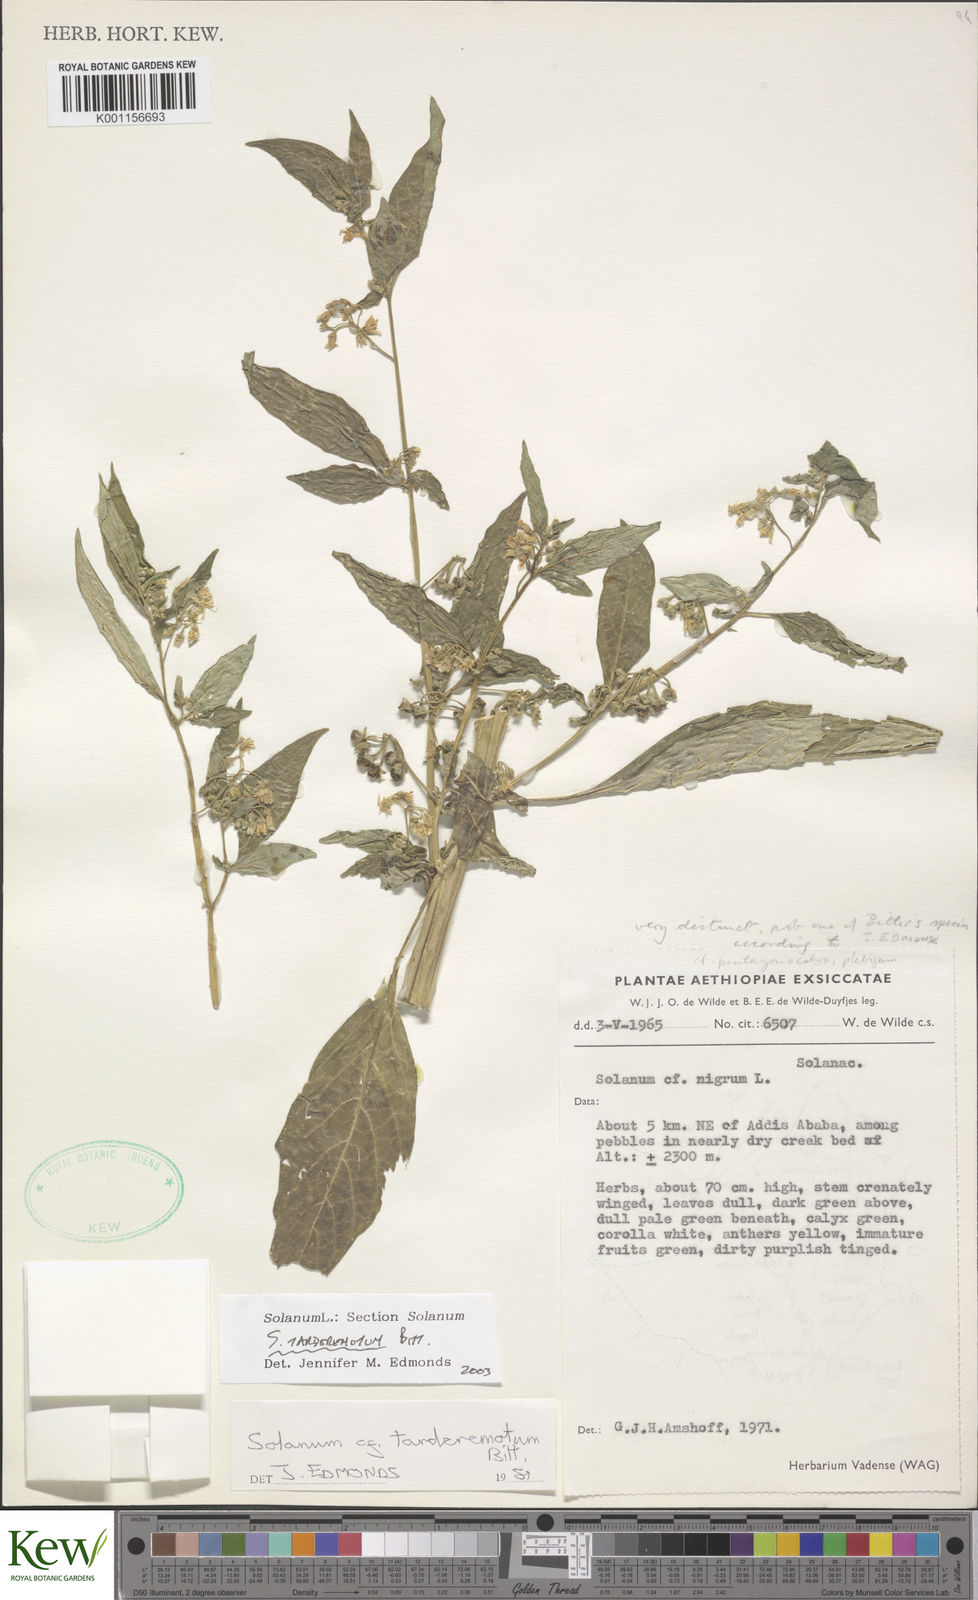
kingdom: Plantae
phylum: Tracheophyta
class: Magnoliopsida
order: Solanales
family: Solanaceae
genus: Solanum
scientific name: Solanum tarderemotum
